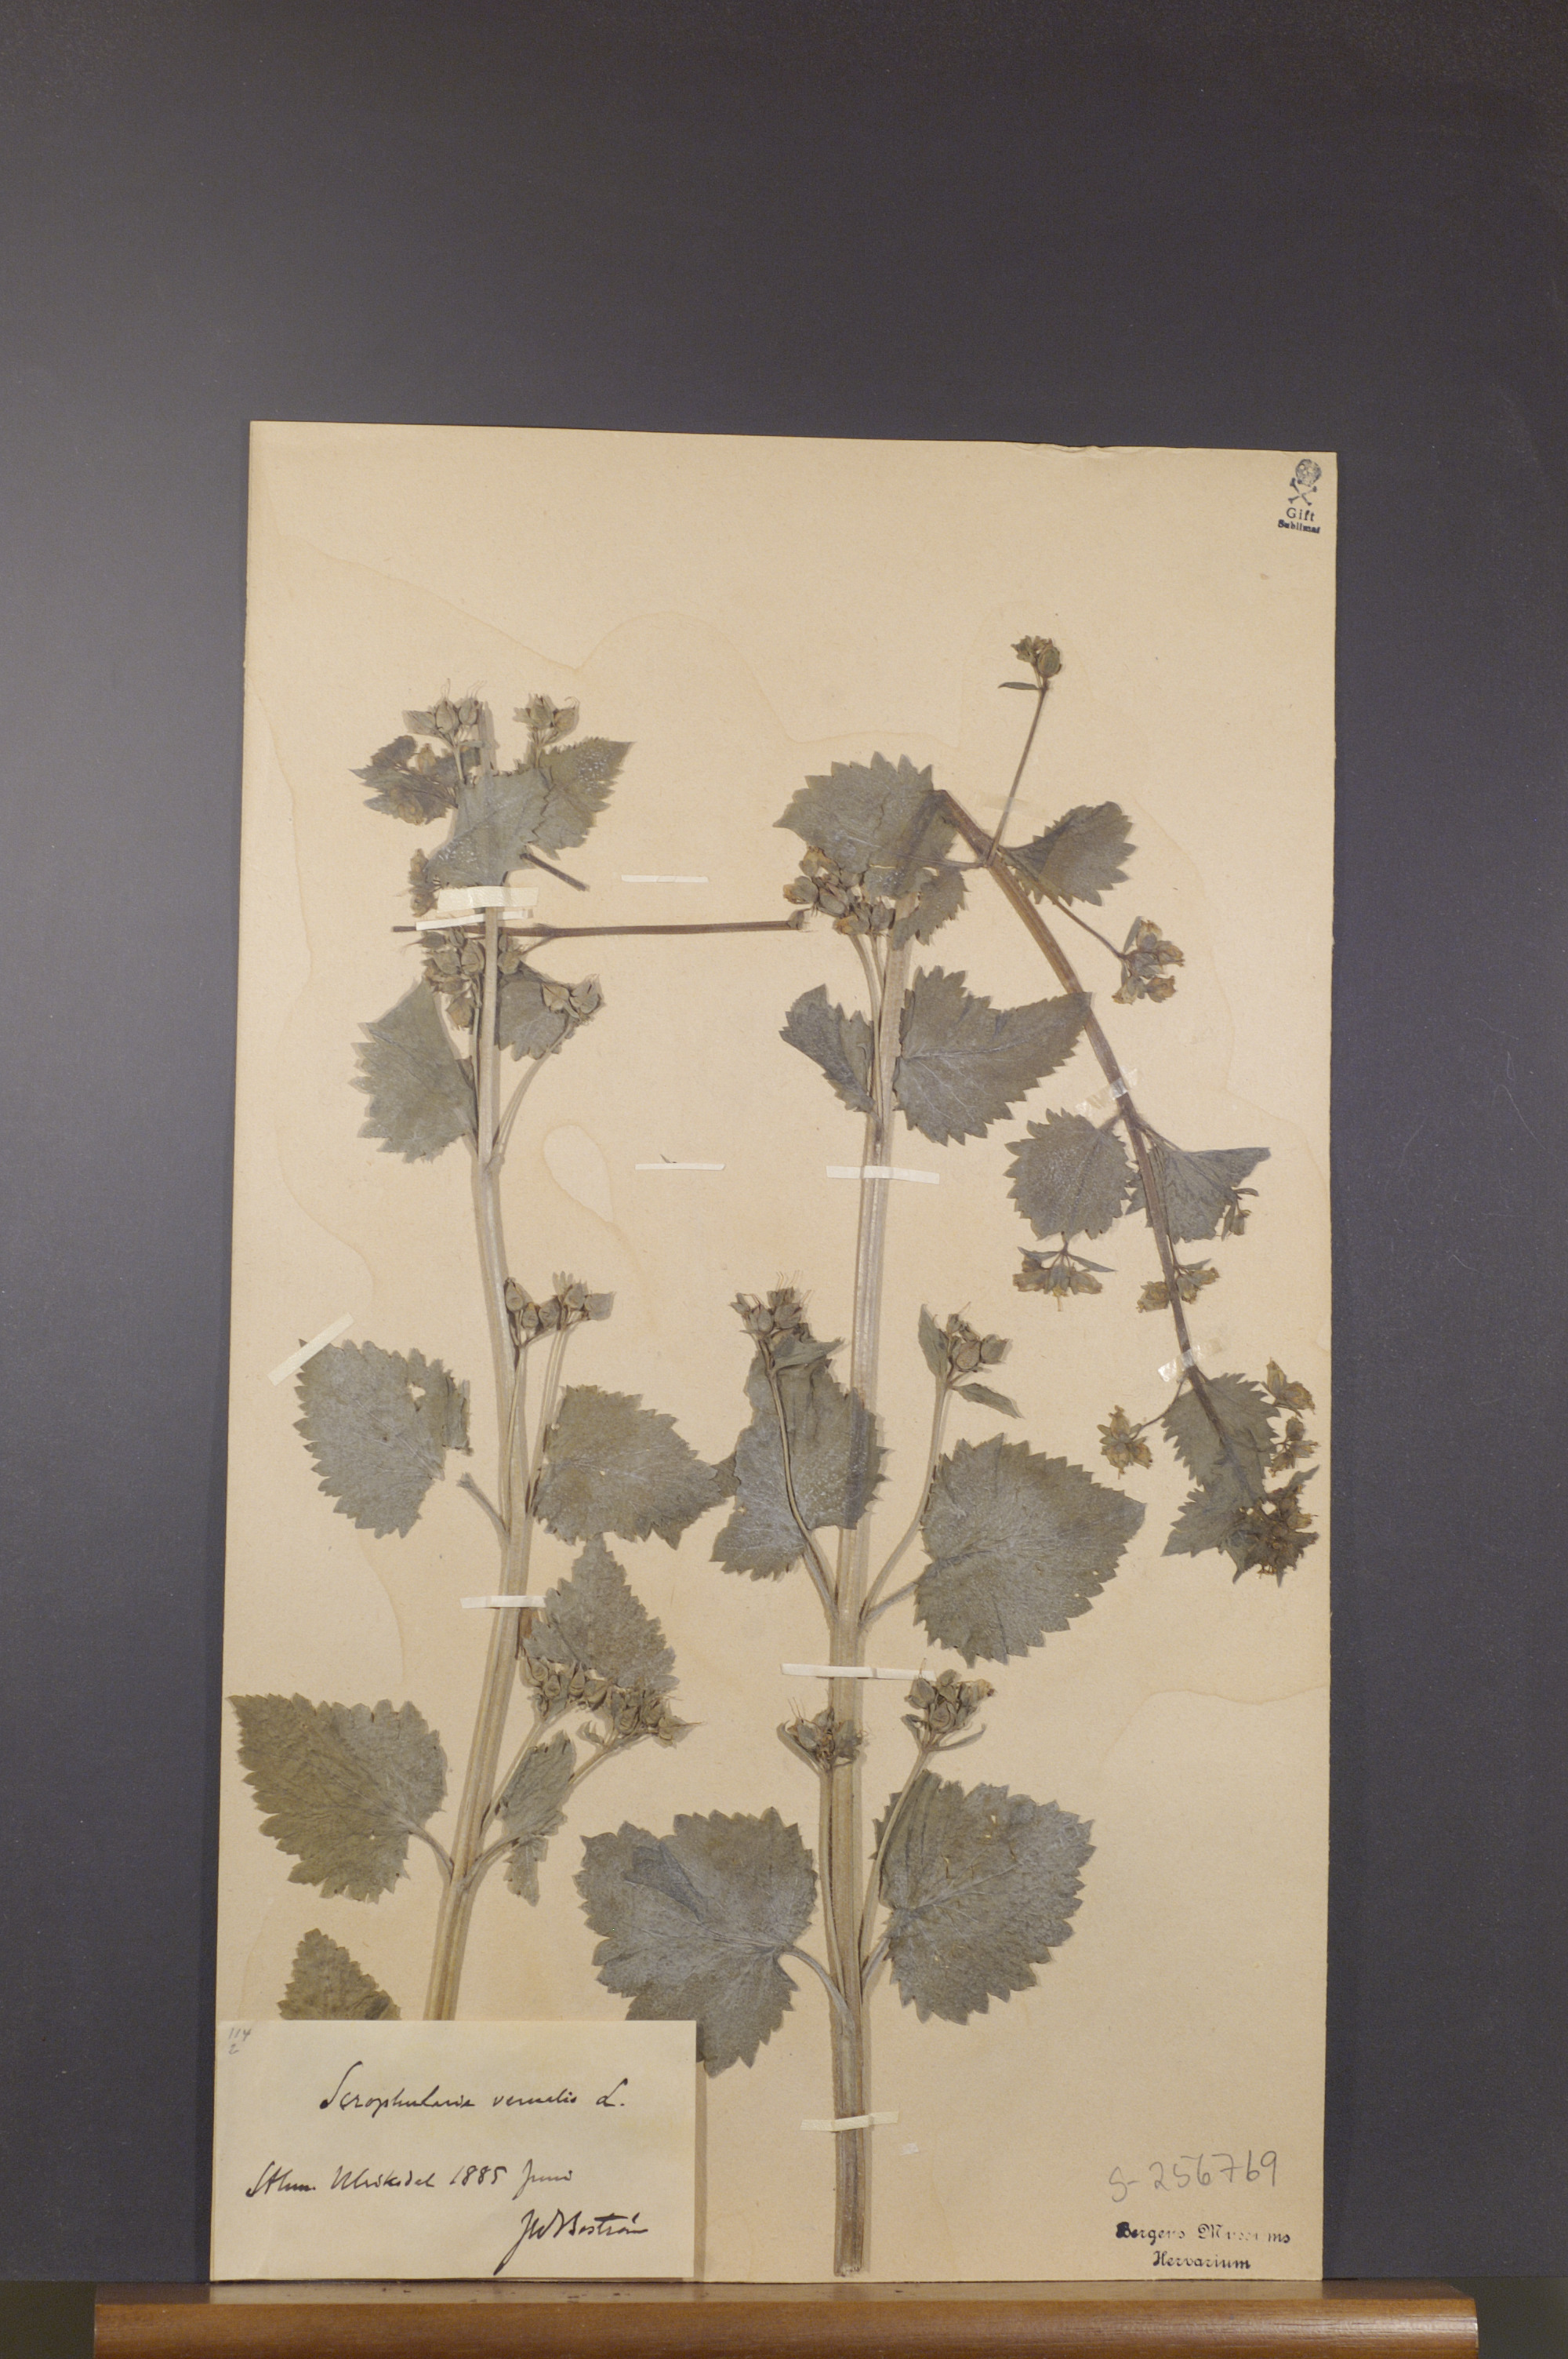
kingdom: Plantae
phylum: Tracheophyta
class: Magnoliopsida
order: Lamiales
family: Scrophulariaceae
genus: Scrophularia
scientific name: Scrophularia vernalis
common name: Yellow figwort
